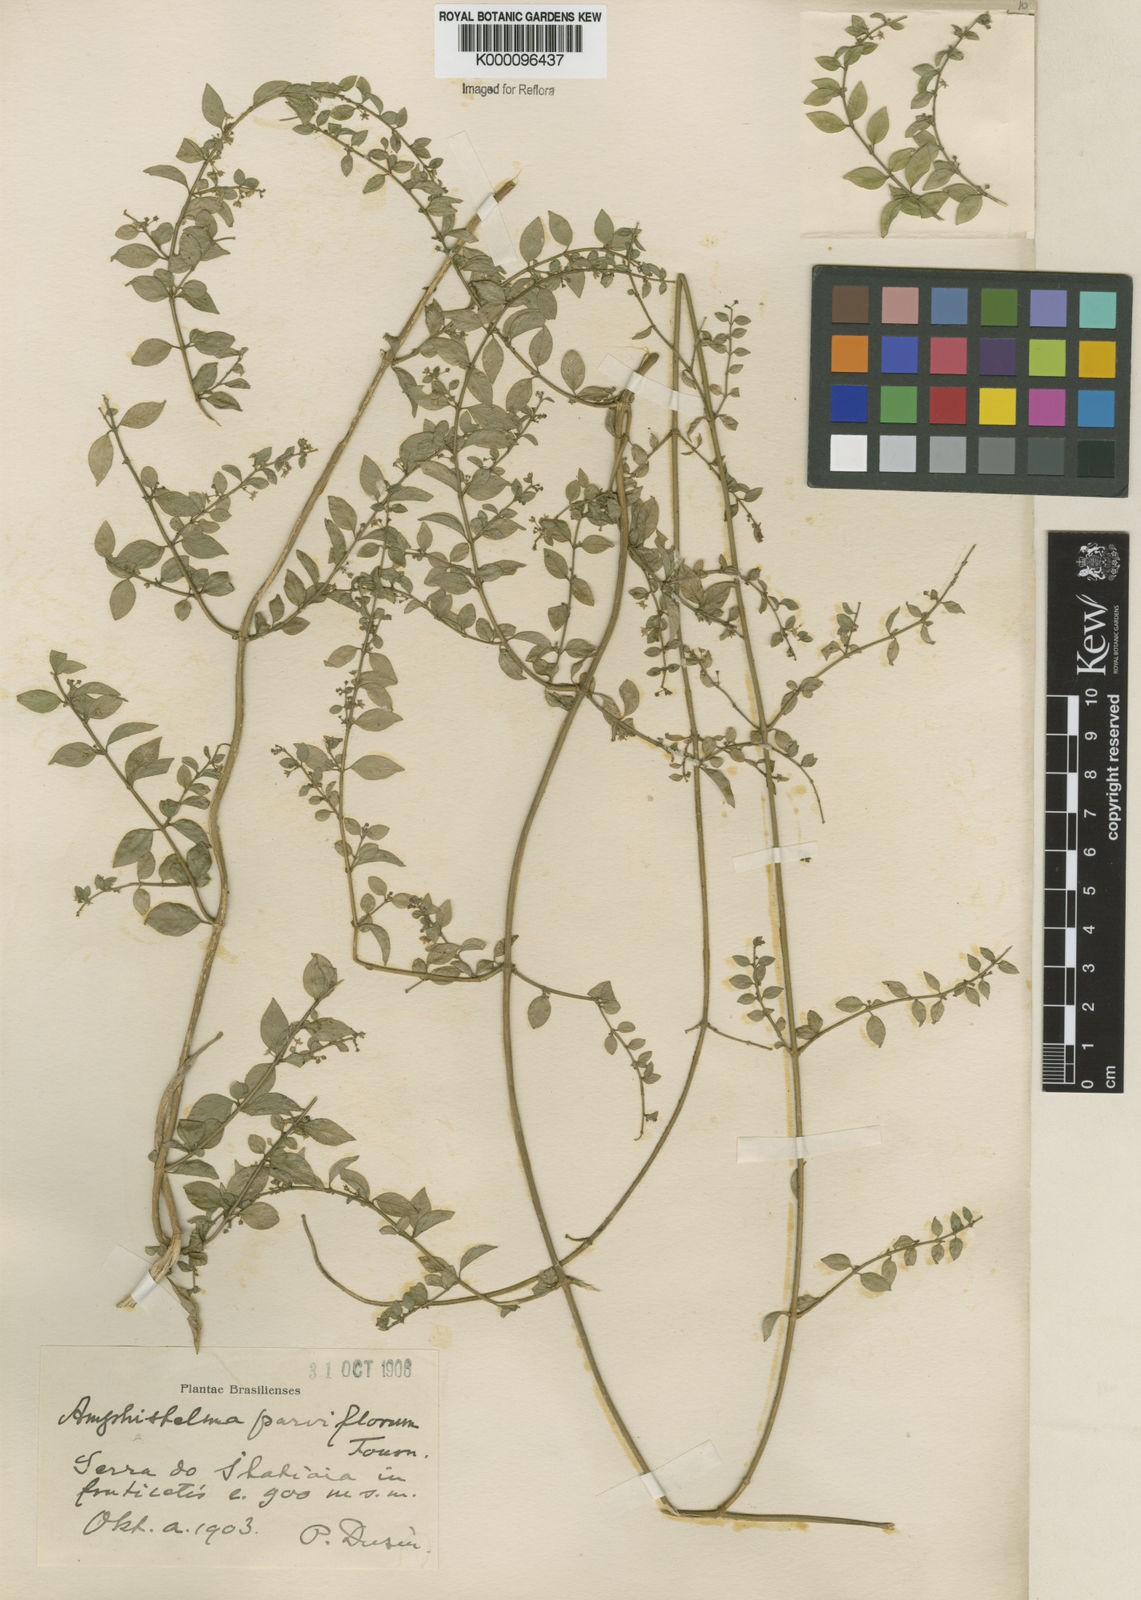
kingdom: Plantae
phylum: Tracheophyta
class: Magnoliopsida
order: Gentianales
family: Apocynaceae
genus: Orthosia
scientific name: Orthosia parviflora
